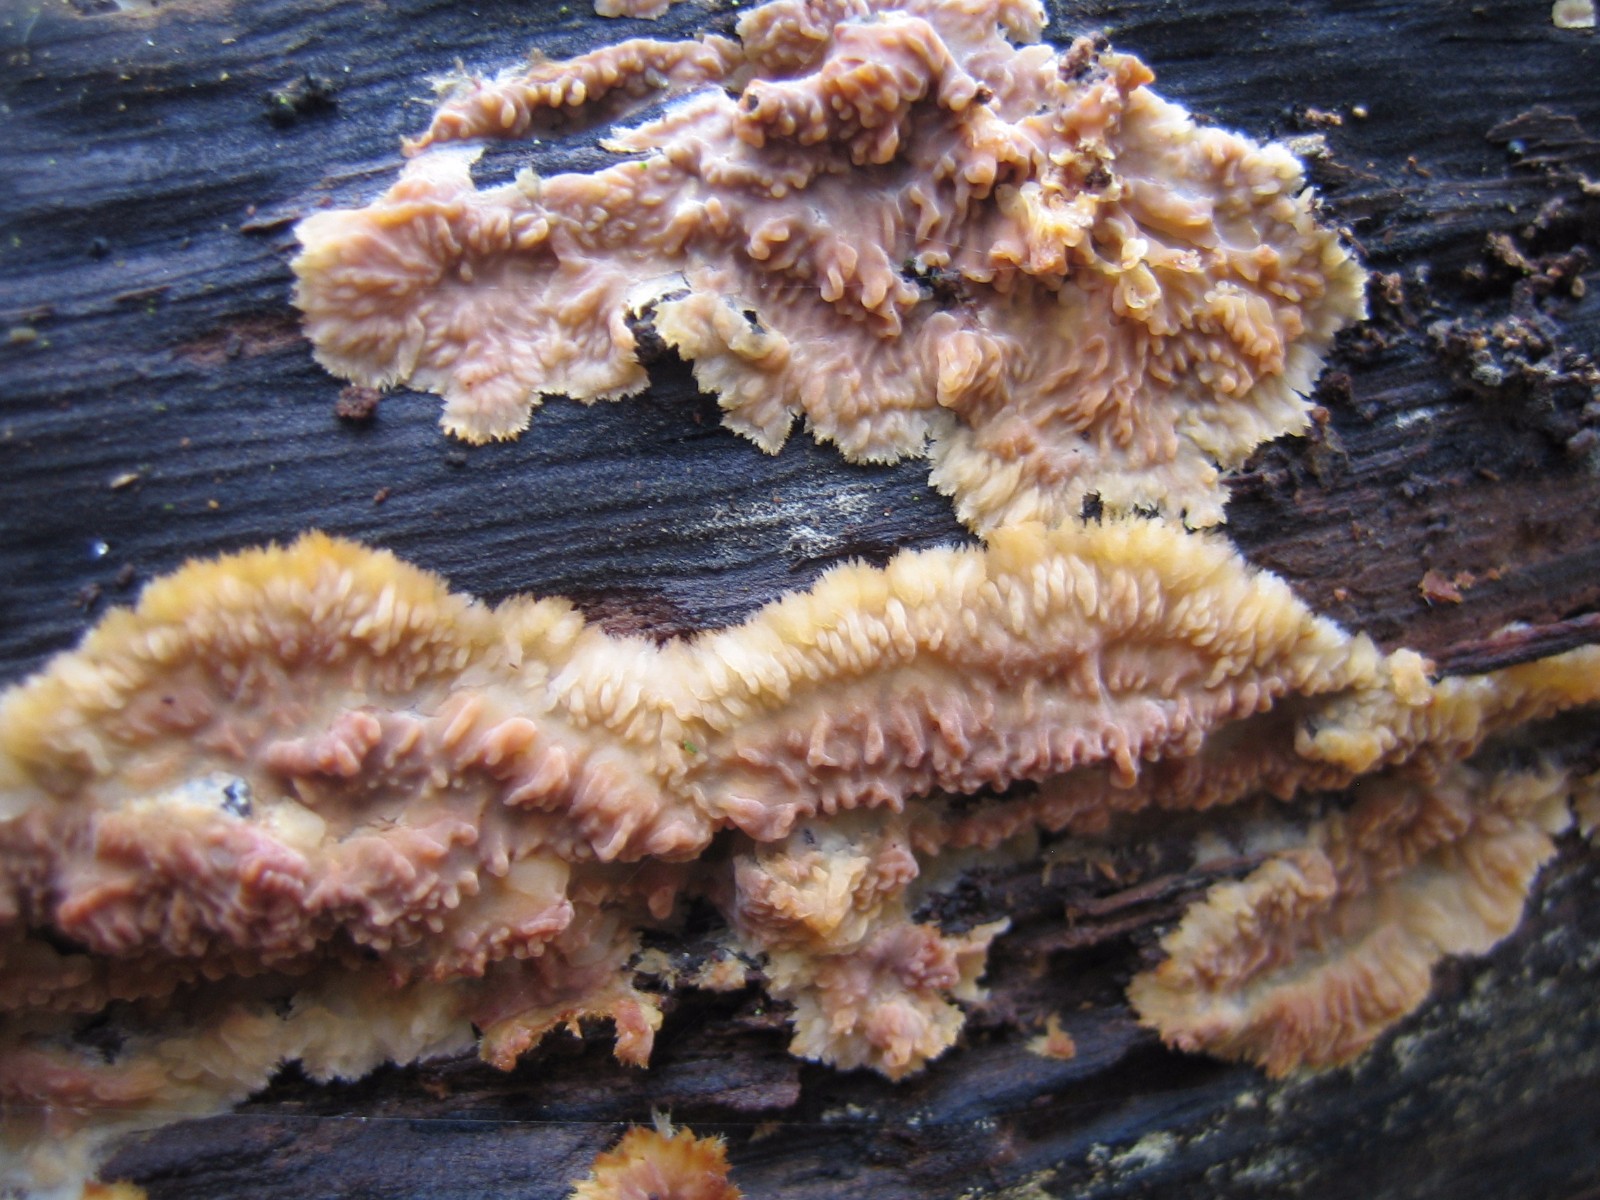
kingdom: Fungi
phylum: Basidiomycota
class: Agaricomycetes
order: Polyporales
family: Meruliaceae
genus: Phlebia
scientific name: Phlebia radiata
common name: stråle-åresvamp
